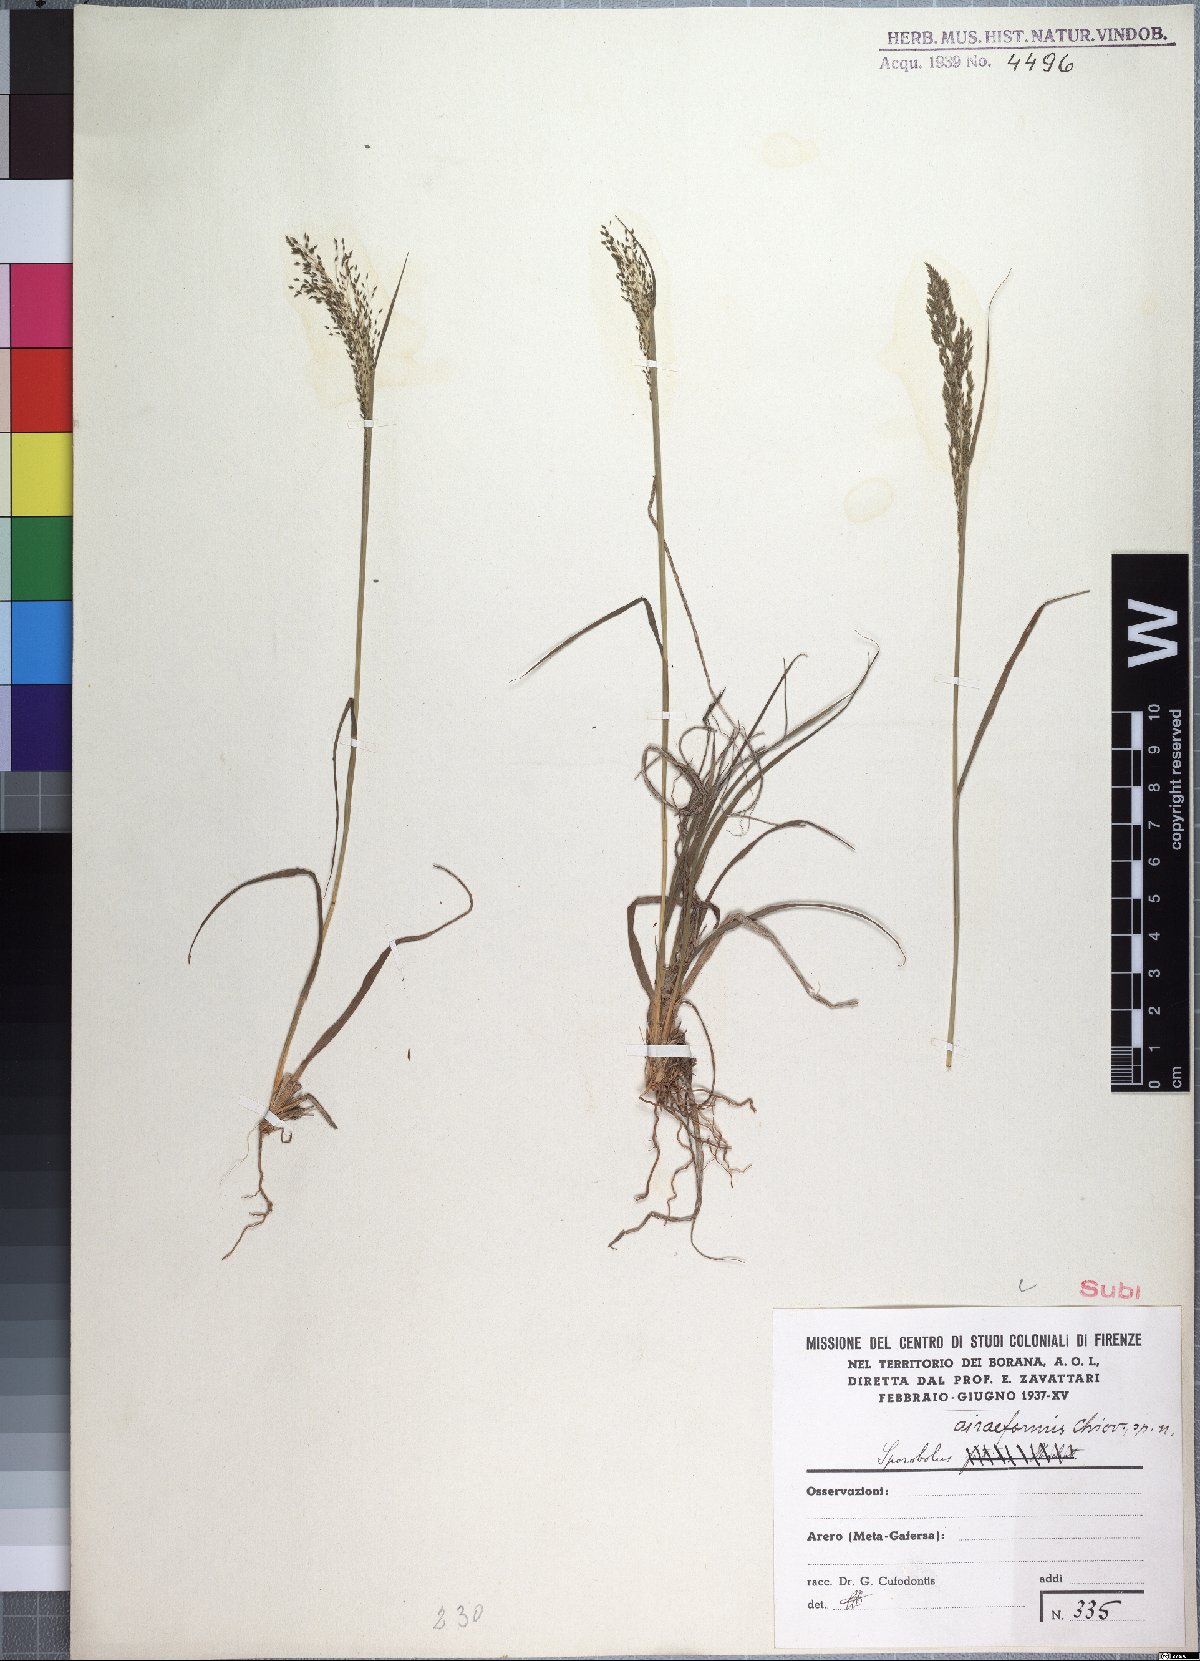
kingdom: Plantae
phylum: Tracheophyta
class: Liliopsida
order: Poales
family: Poaceae
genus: Sporobolus
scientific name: Sporobolus airiformis
